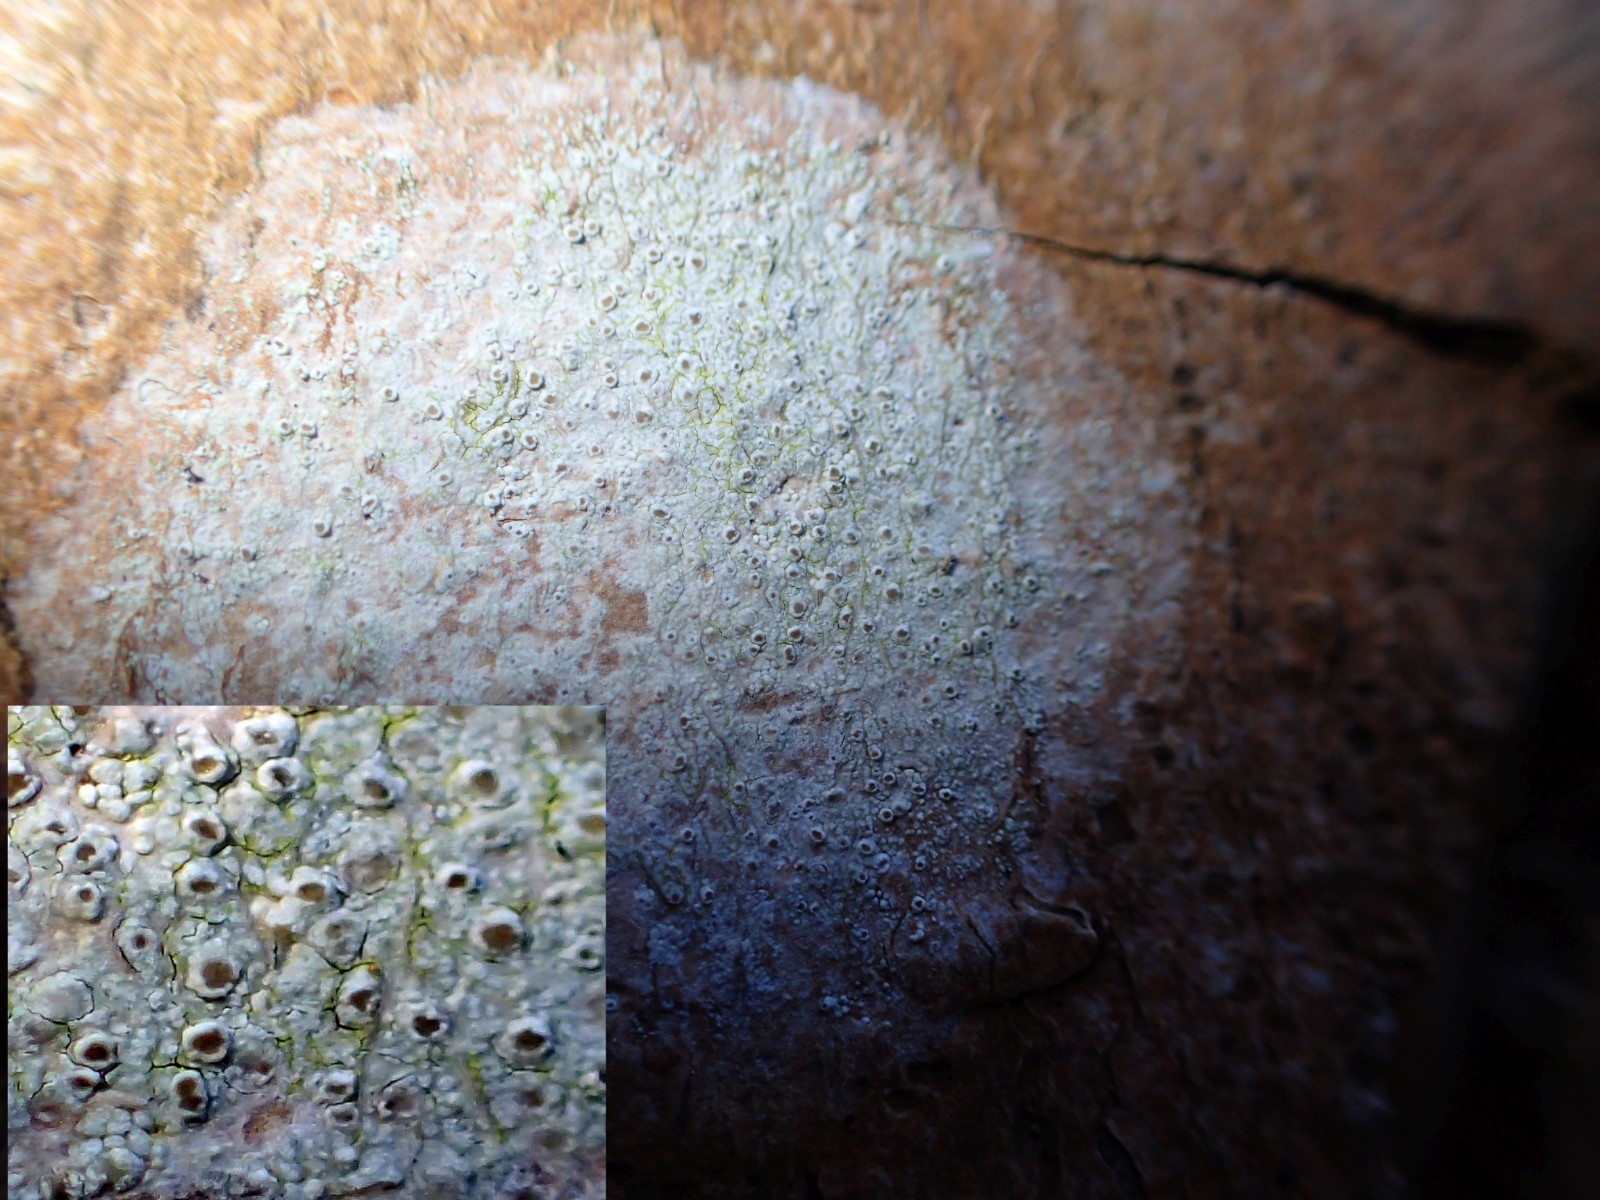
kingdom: Fungi
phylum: Ascomycota
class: Lecanoromycetes
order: Lecanorales
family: Lecanoraceae
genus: Lecanora
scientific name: Lecanora
